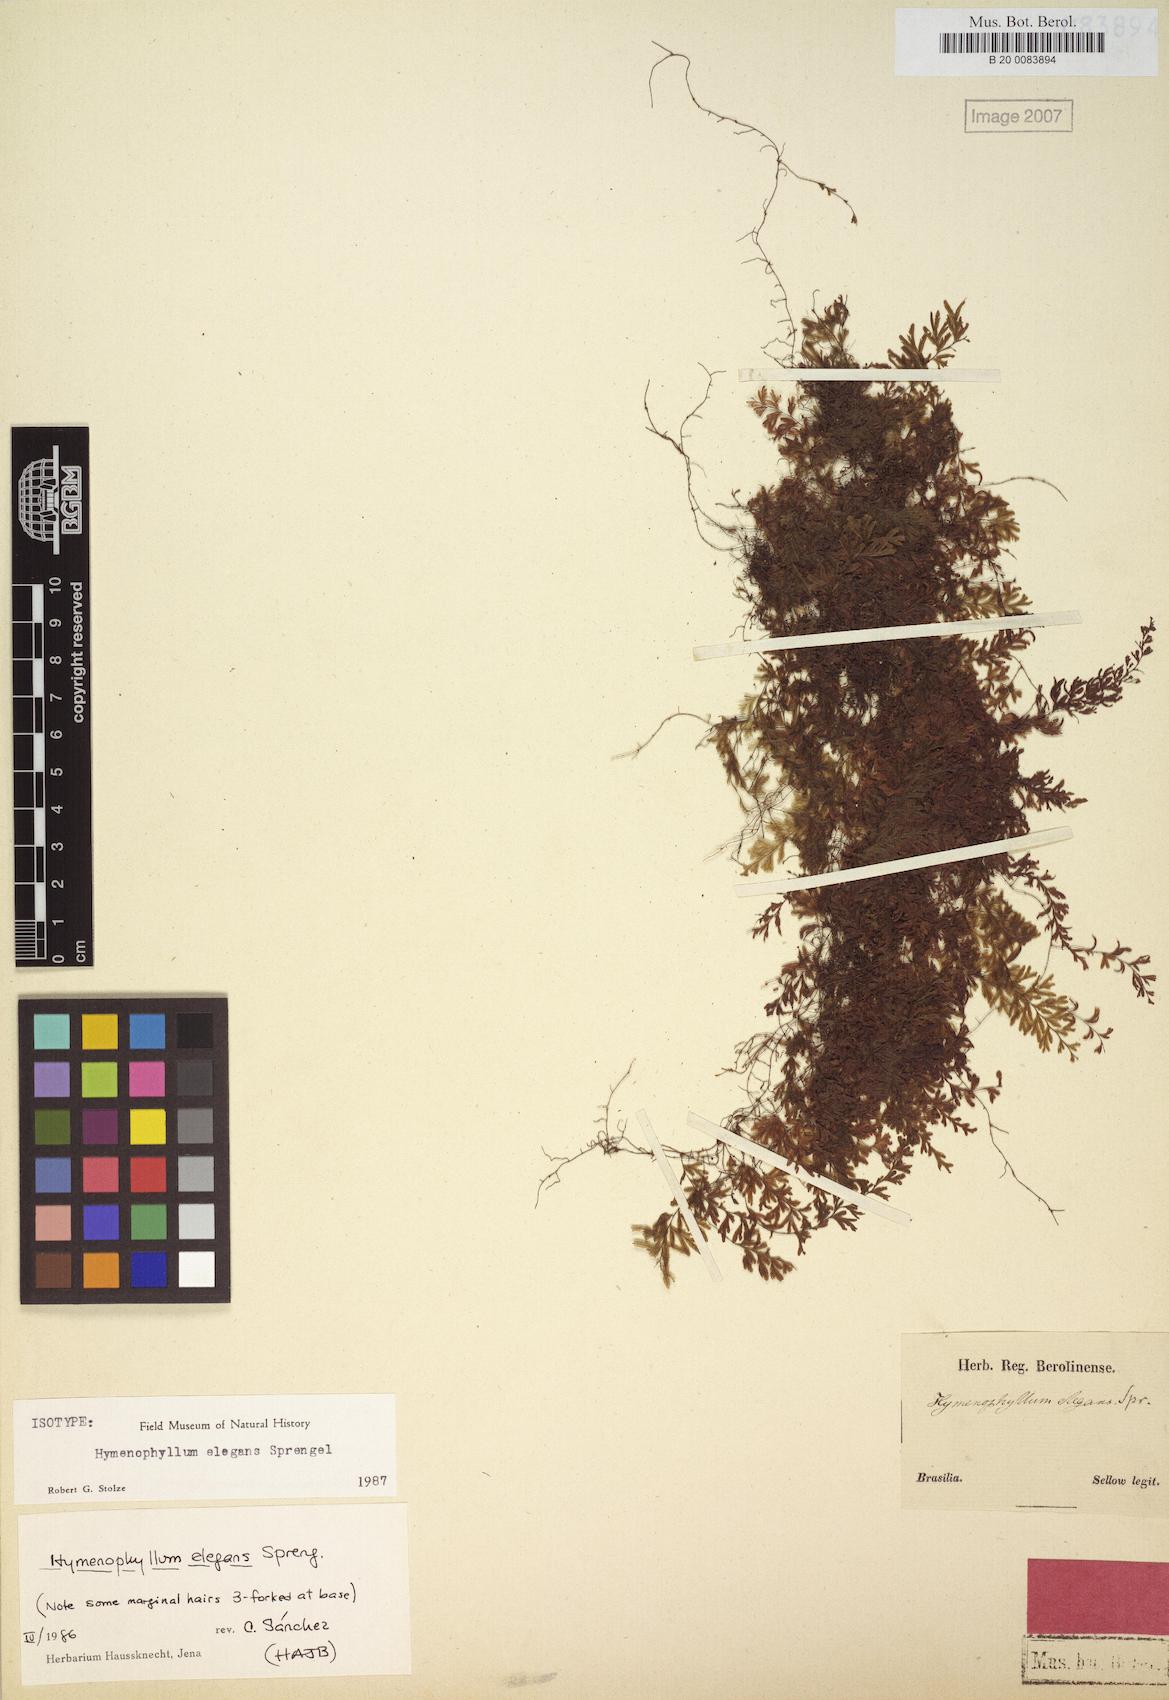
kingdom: Plantae
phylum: Tracheophyta
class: Polypodiopsida
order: Hymenophyllales
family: Hymenophyllaceae
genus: Hymenophyllum
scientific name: Hymenophyllum elegans
